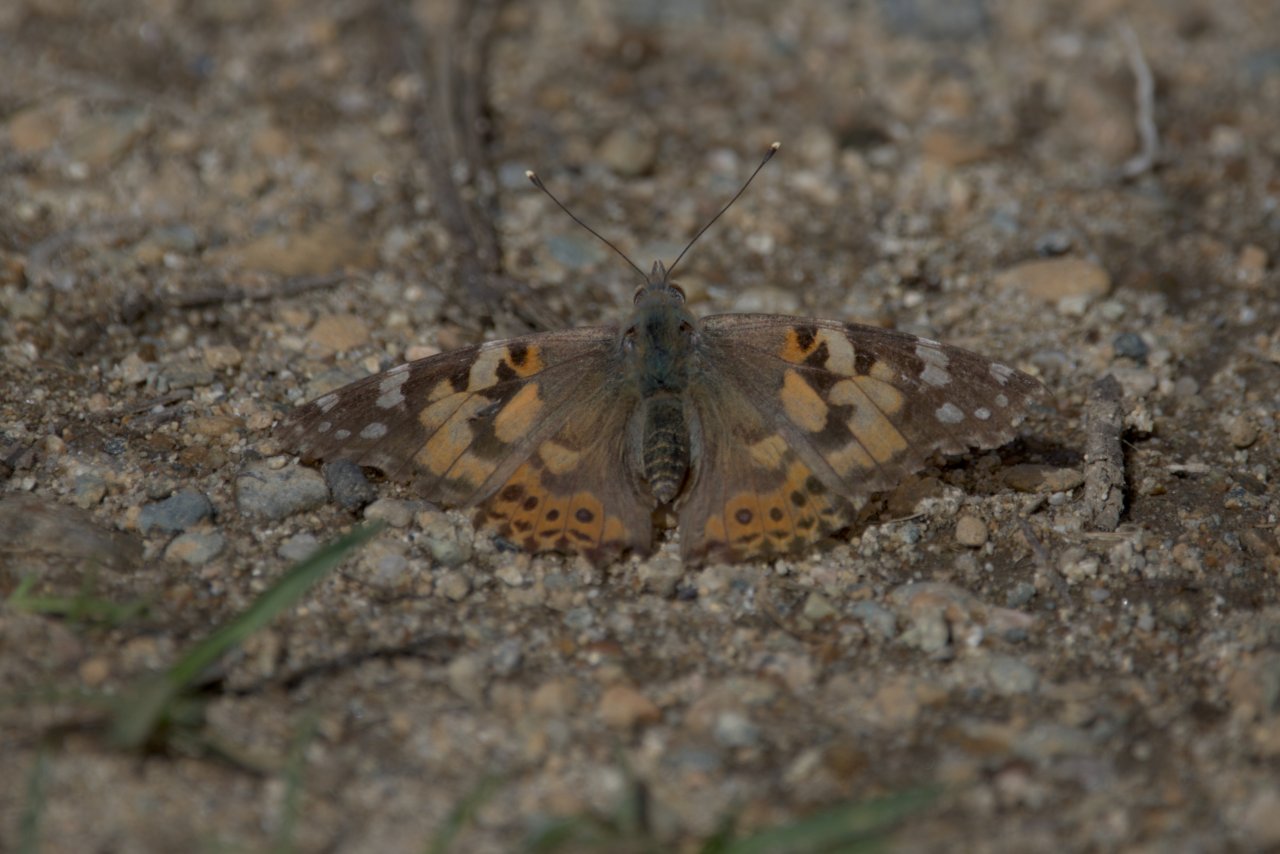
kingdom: Animalia
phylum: Arthropoda
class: Insecta
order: Lepidoptera
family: Nymphalidae
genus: Vanessa
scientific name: Vanessa cardui
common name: Painted Lady
